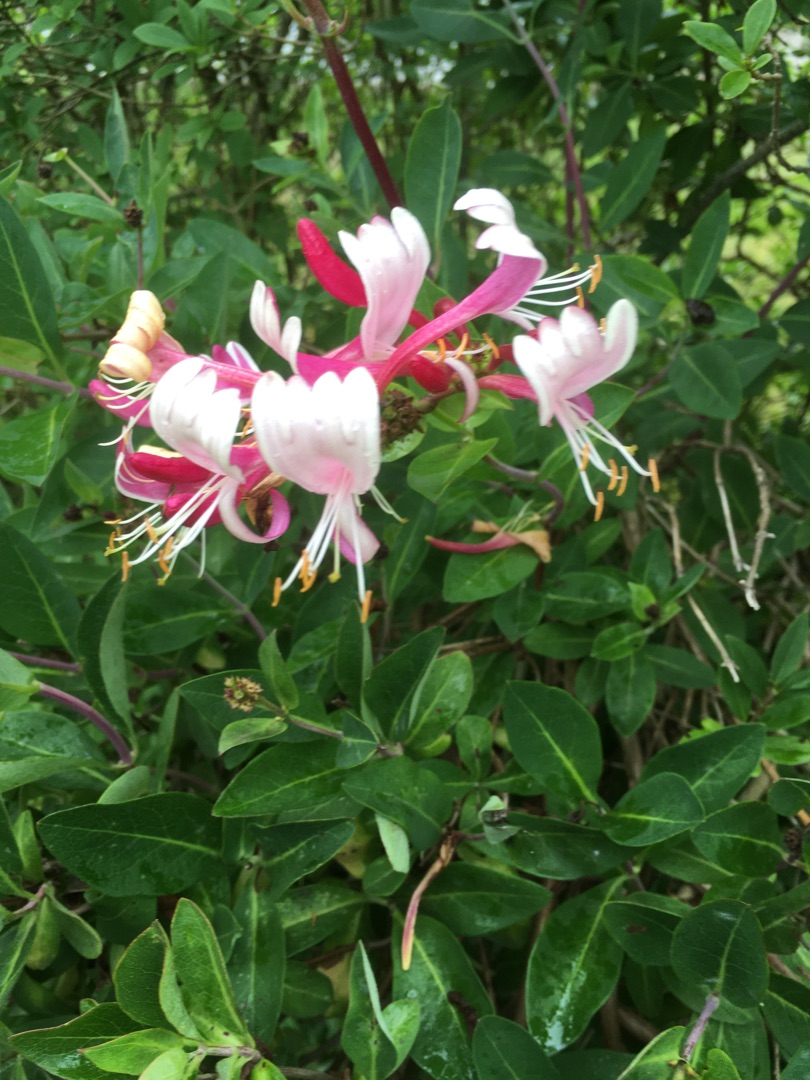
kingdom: Plantae
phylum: Tracheophyta
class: Magnoliopsida
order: Dipsacales
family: Caprifoliaceae
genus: Lonicera
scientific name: Lonicera periclymenum
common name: Almindelig gedeblad
